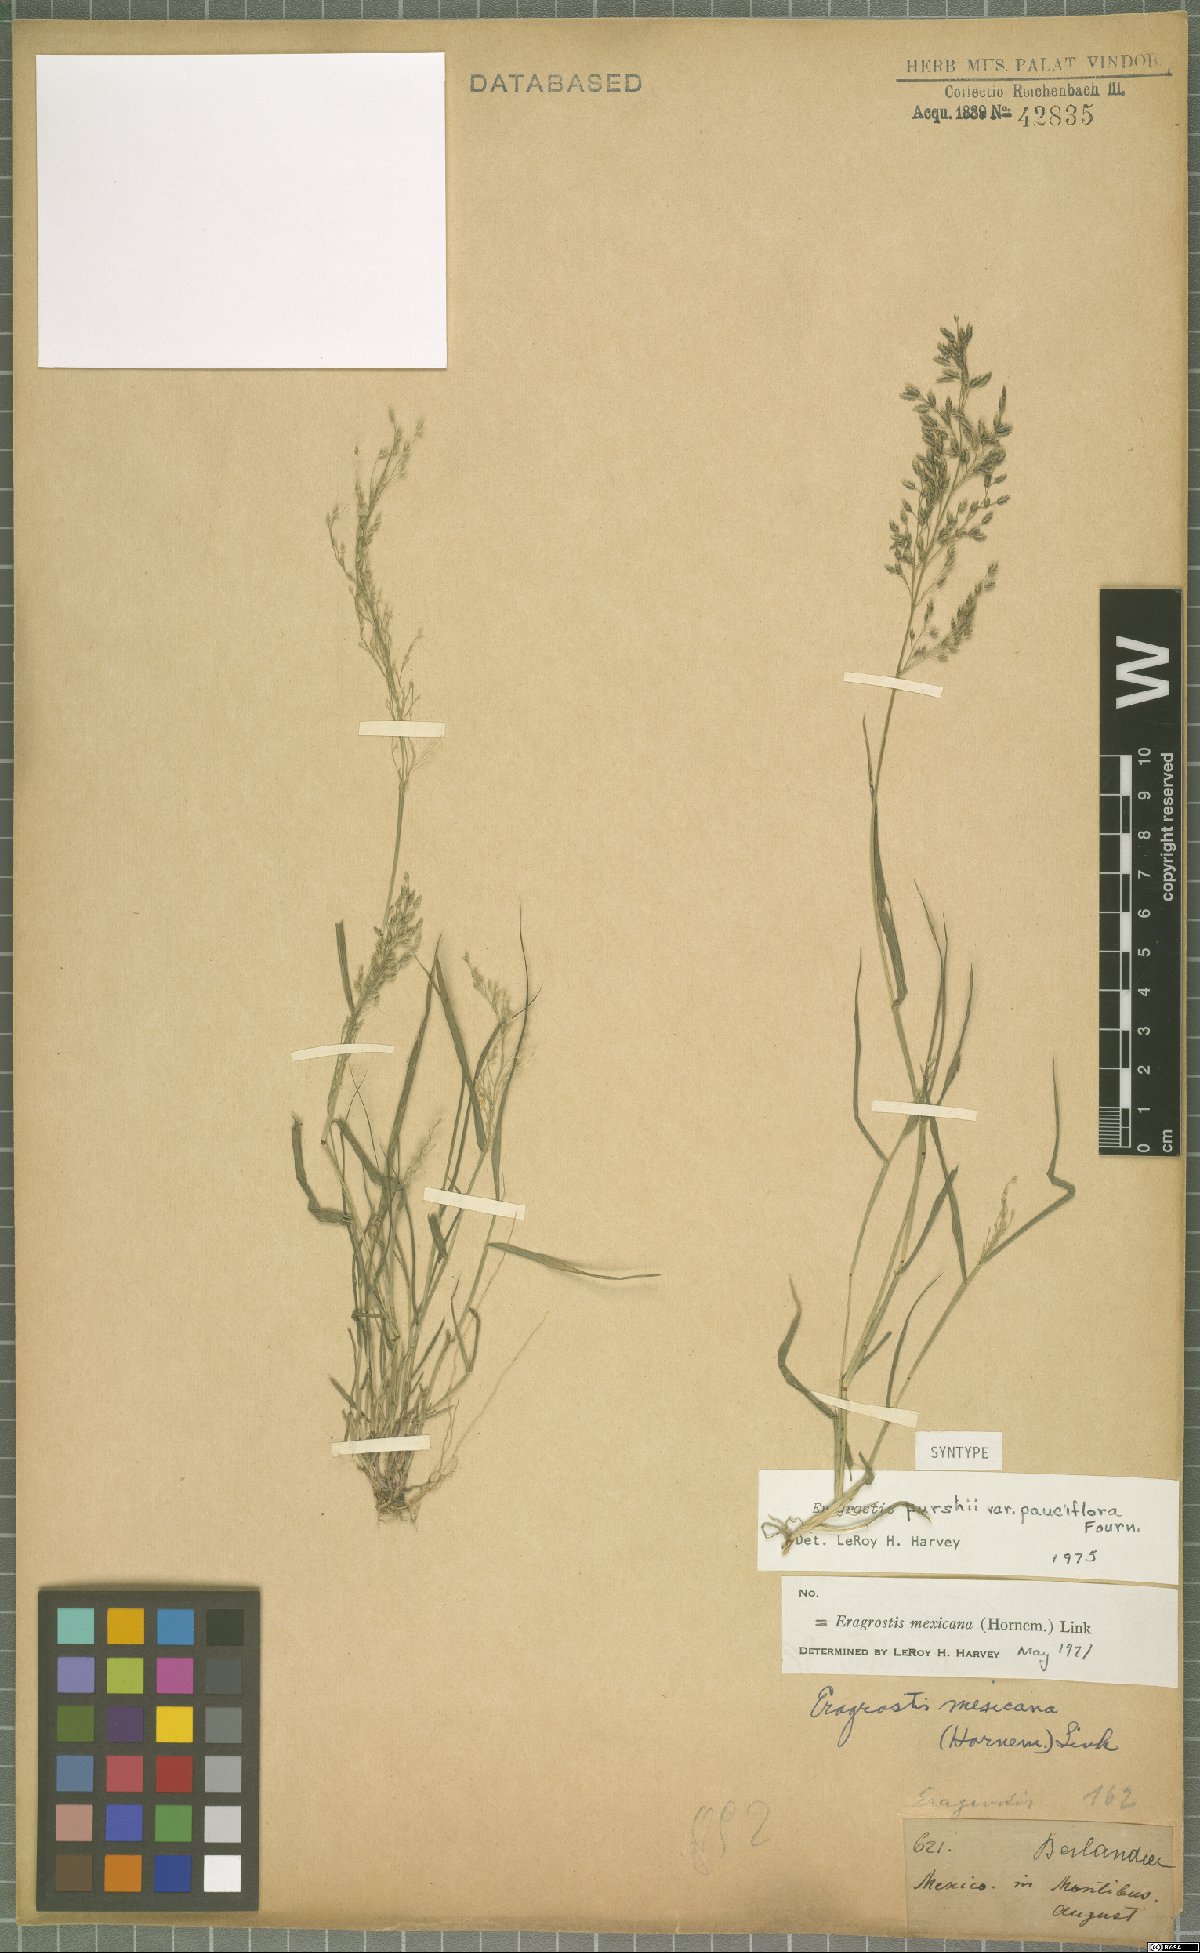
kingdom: Plantae
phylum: Tracheophyta
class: Liliopsida
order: Poales
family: Poaceae
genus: Eragrostis
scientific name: Eragrostis mexicana
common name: Mexican love grass
